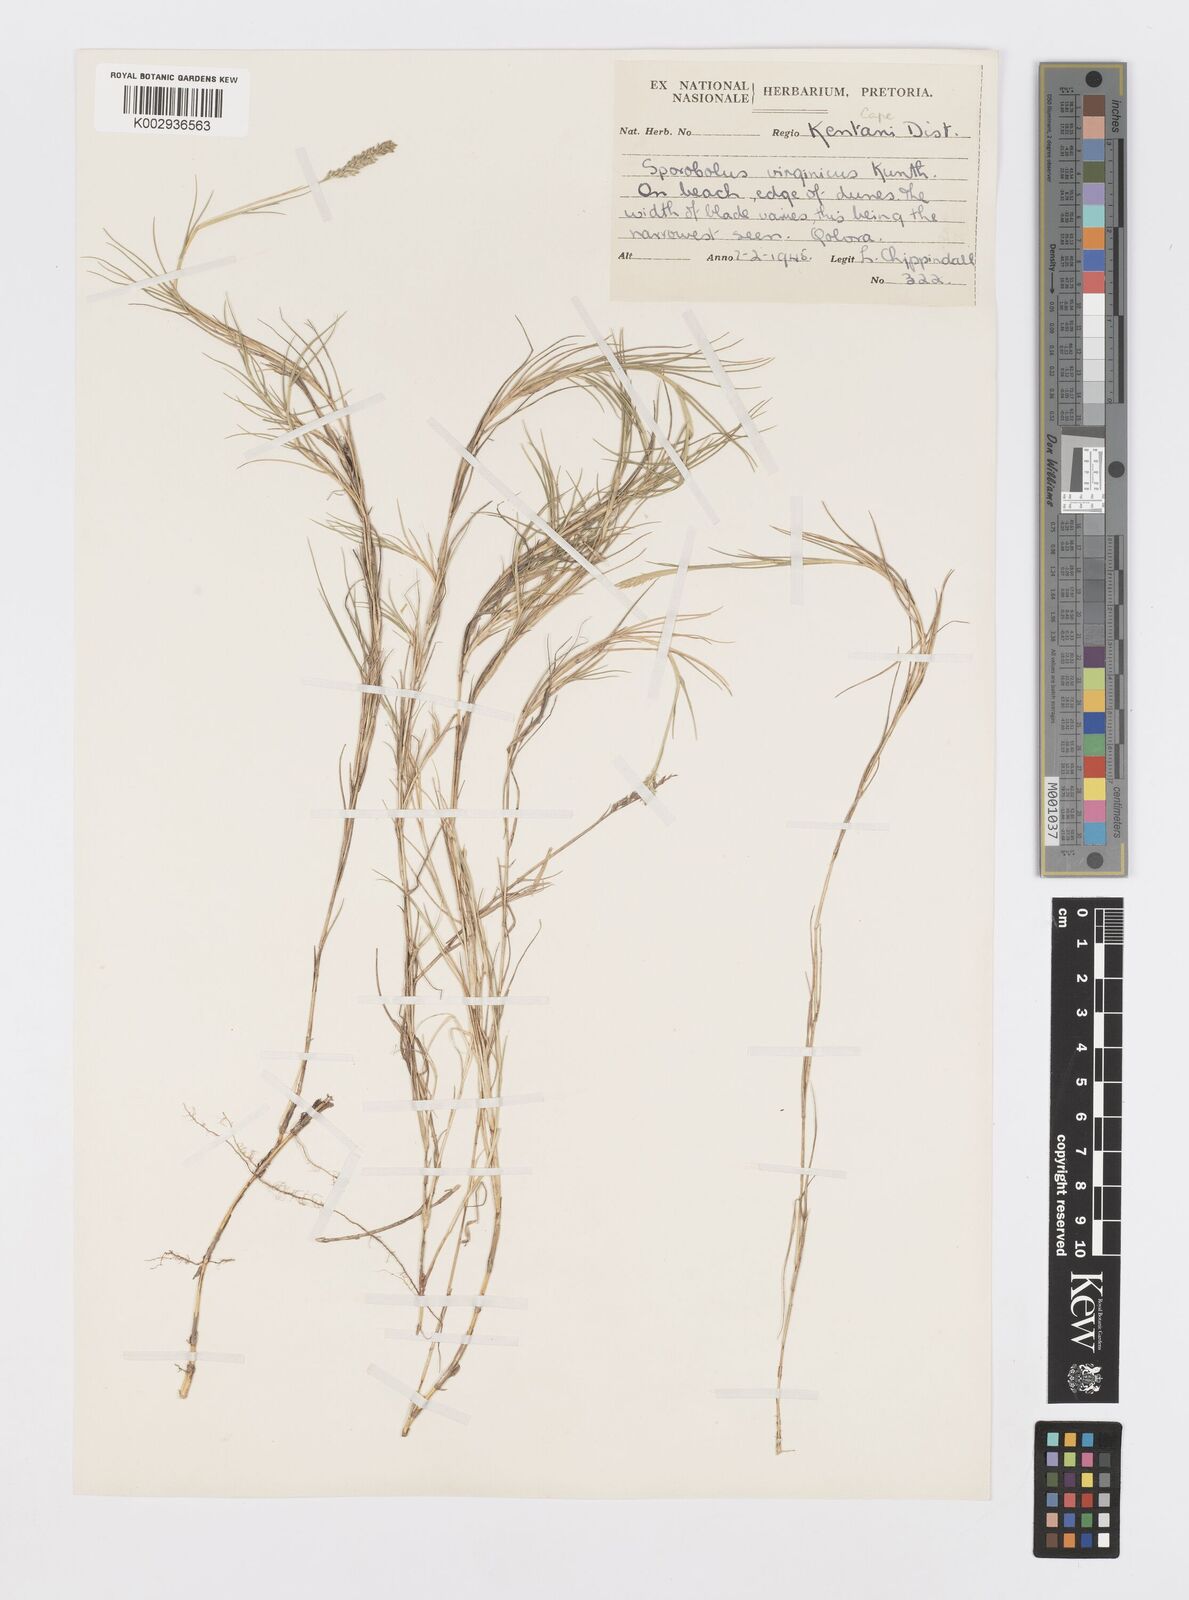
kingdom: Plantae
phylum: Tracheophyta
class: Liliopsida
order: Poales
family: Poaceae
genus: Sporobolus
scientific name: Sporobolus virginicus
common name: Beach dropseed
